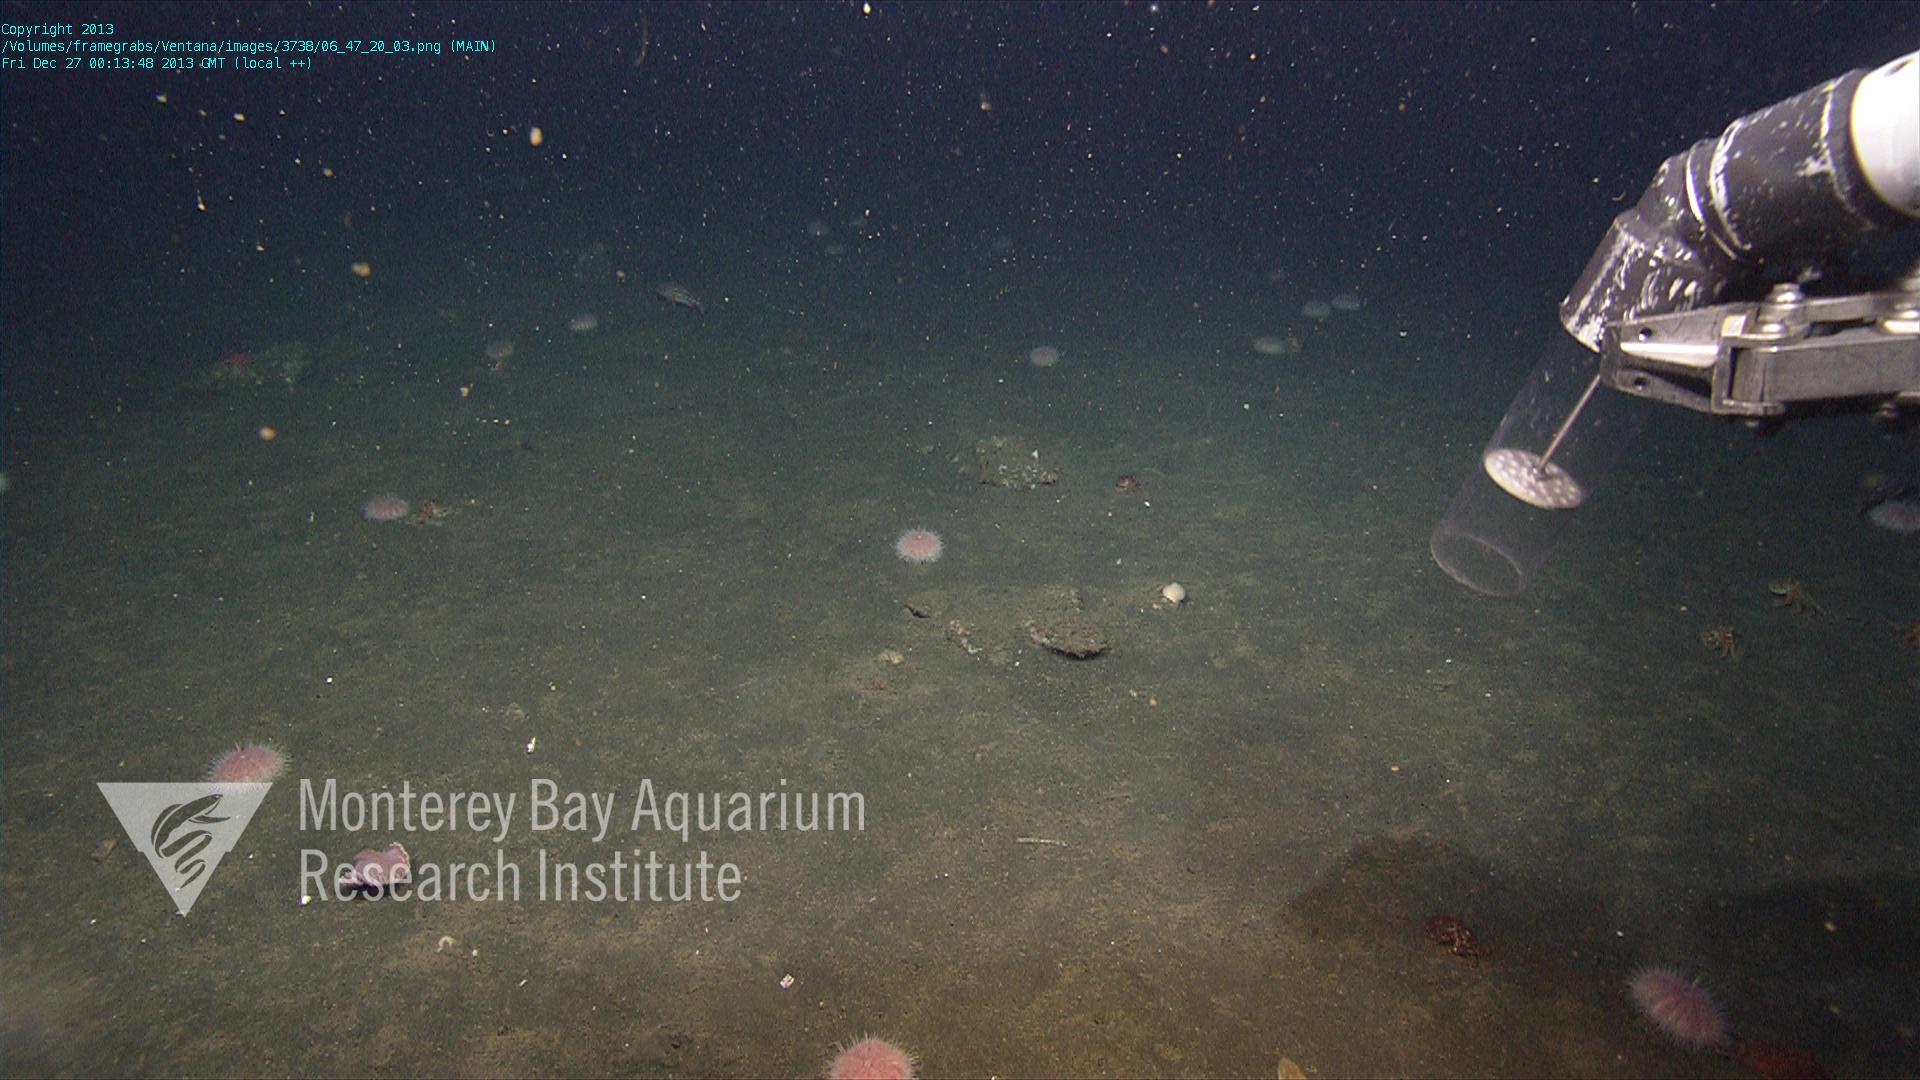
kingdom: Animalia
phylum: Cnidaria
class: Anthozoa
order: Scleralcyonacea
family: Pennatulidae
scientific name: Pennatulidae
